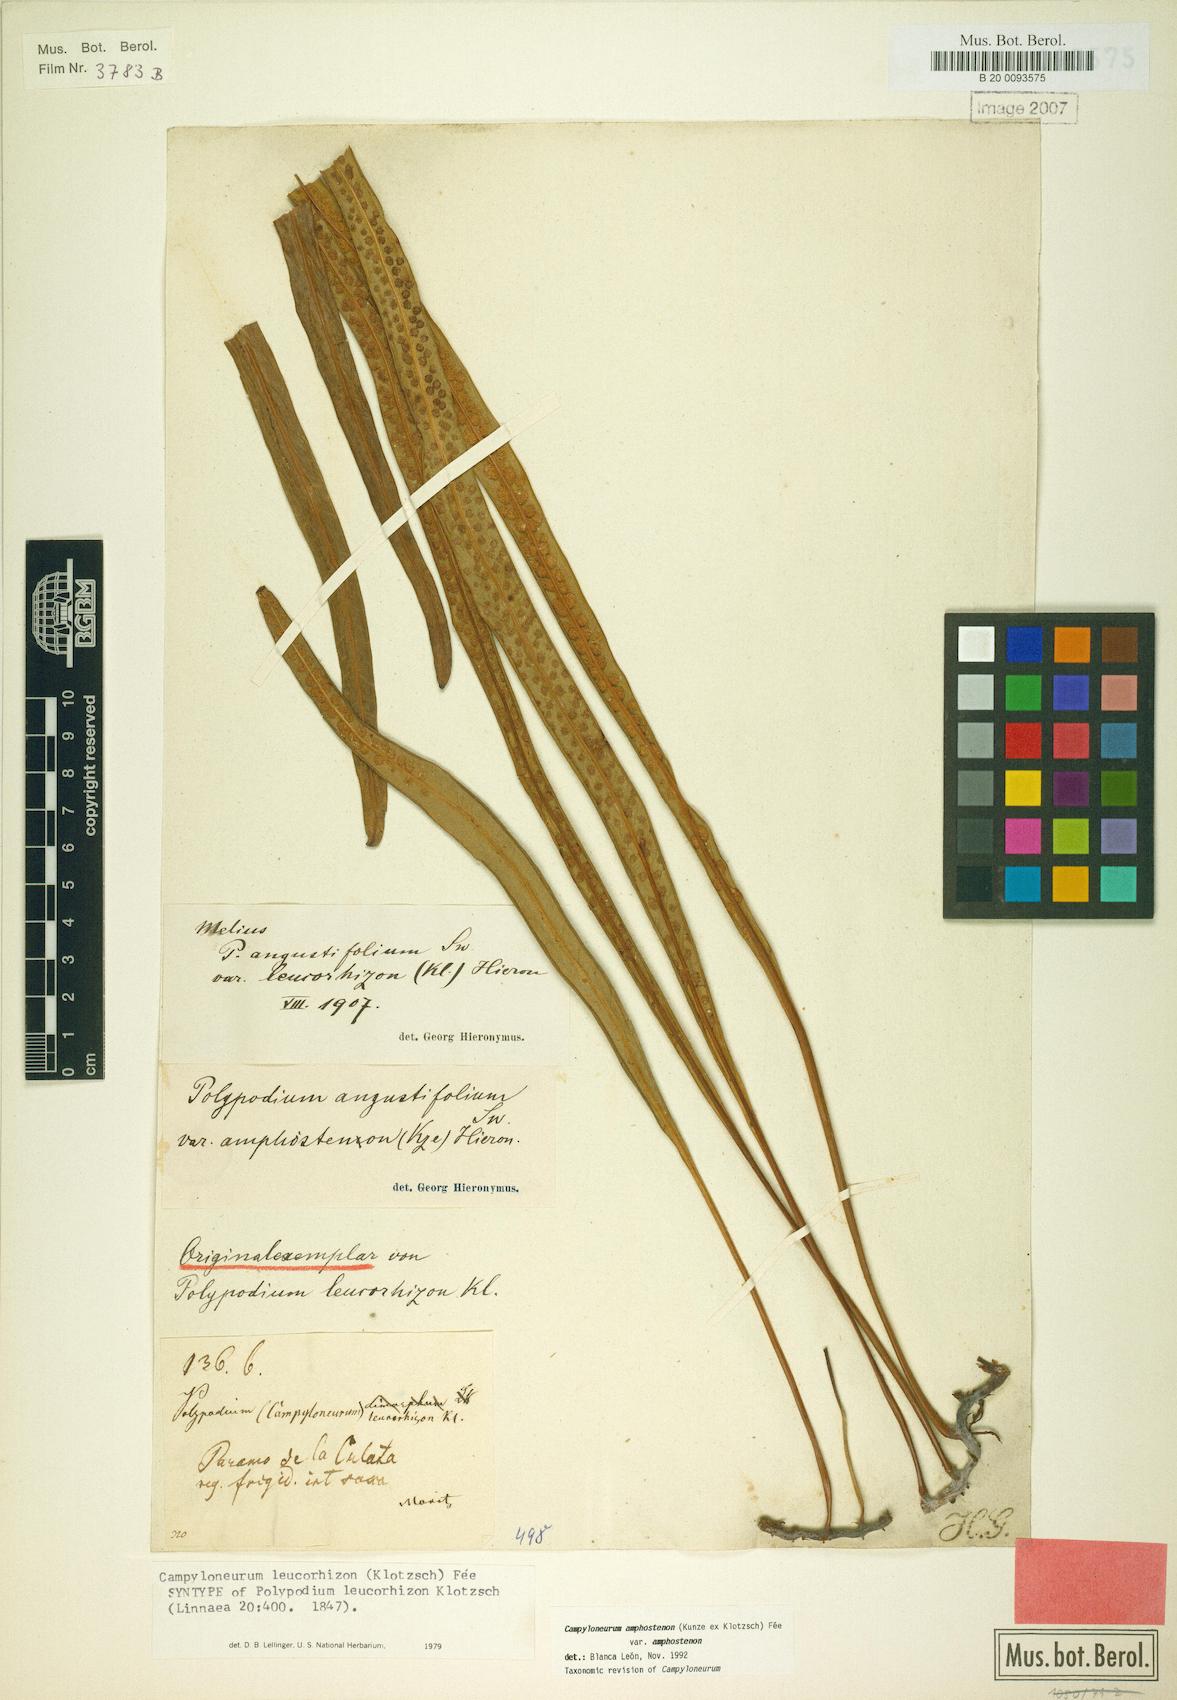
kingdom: Plantae
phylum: Tracheophyta
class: Polypodiopsida
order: Polypodiales
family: Polypodiaceae
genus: Campyloneurum
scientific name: Campyloneurum amphostenon
